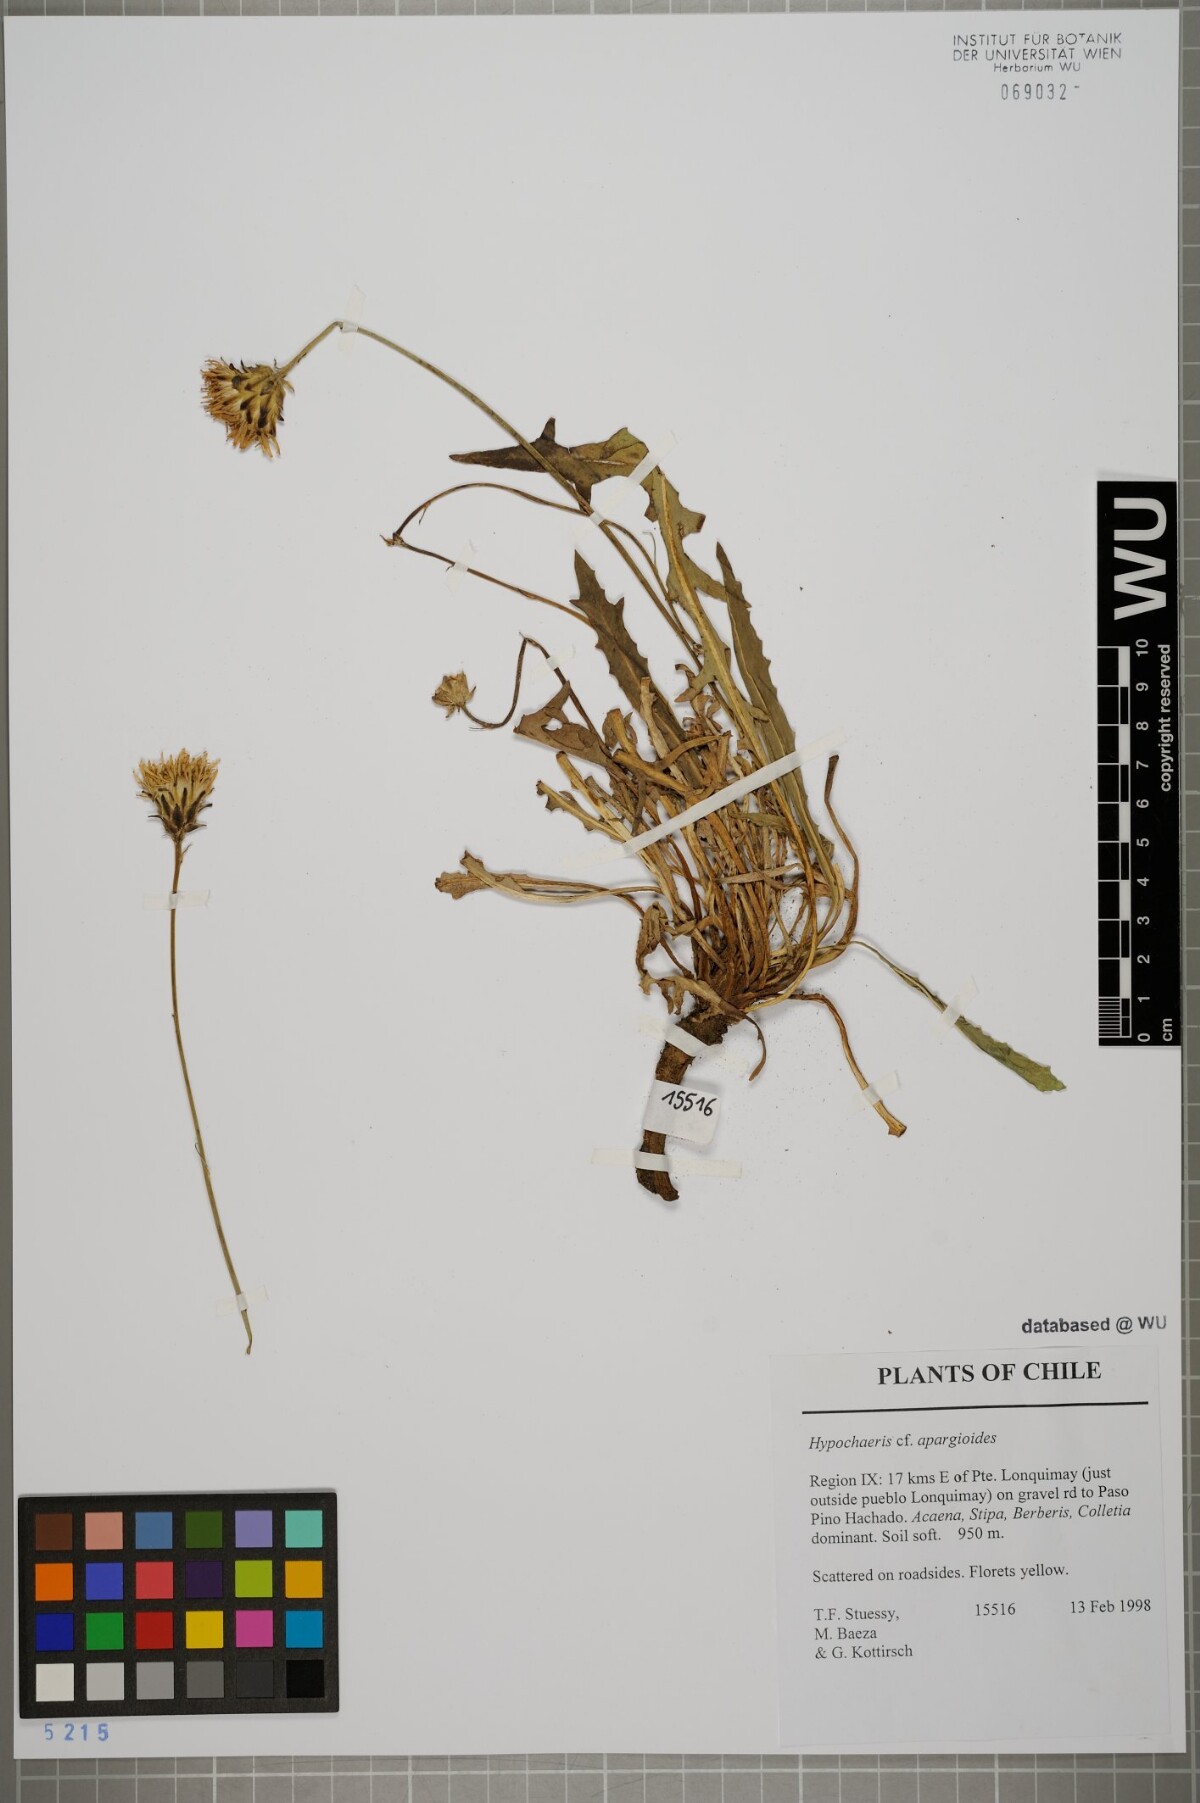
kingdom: Plantae
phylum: Tracheophyta
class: Magnoliopsida
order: Asterales
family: Asteraceae
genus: Hypochaeris
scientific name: Hypochaeris apargioides
